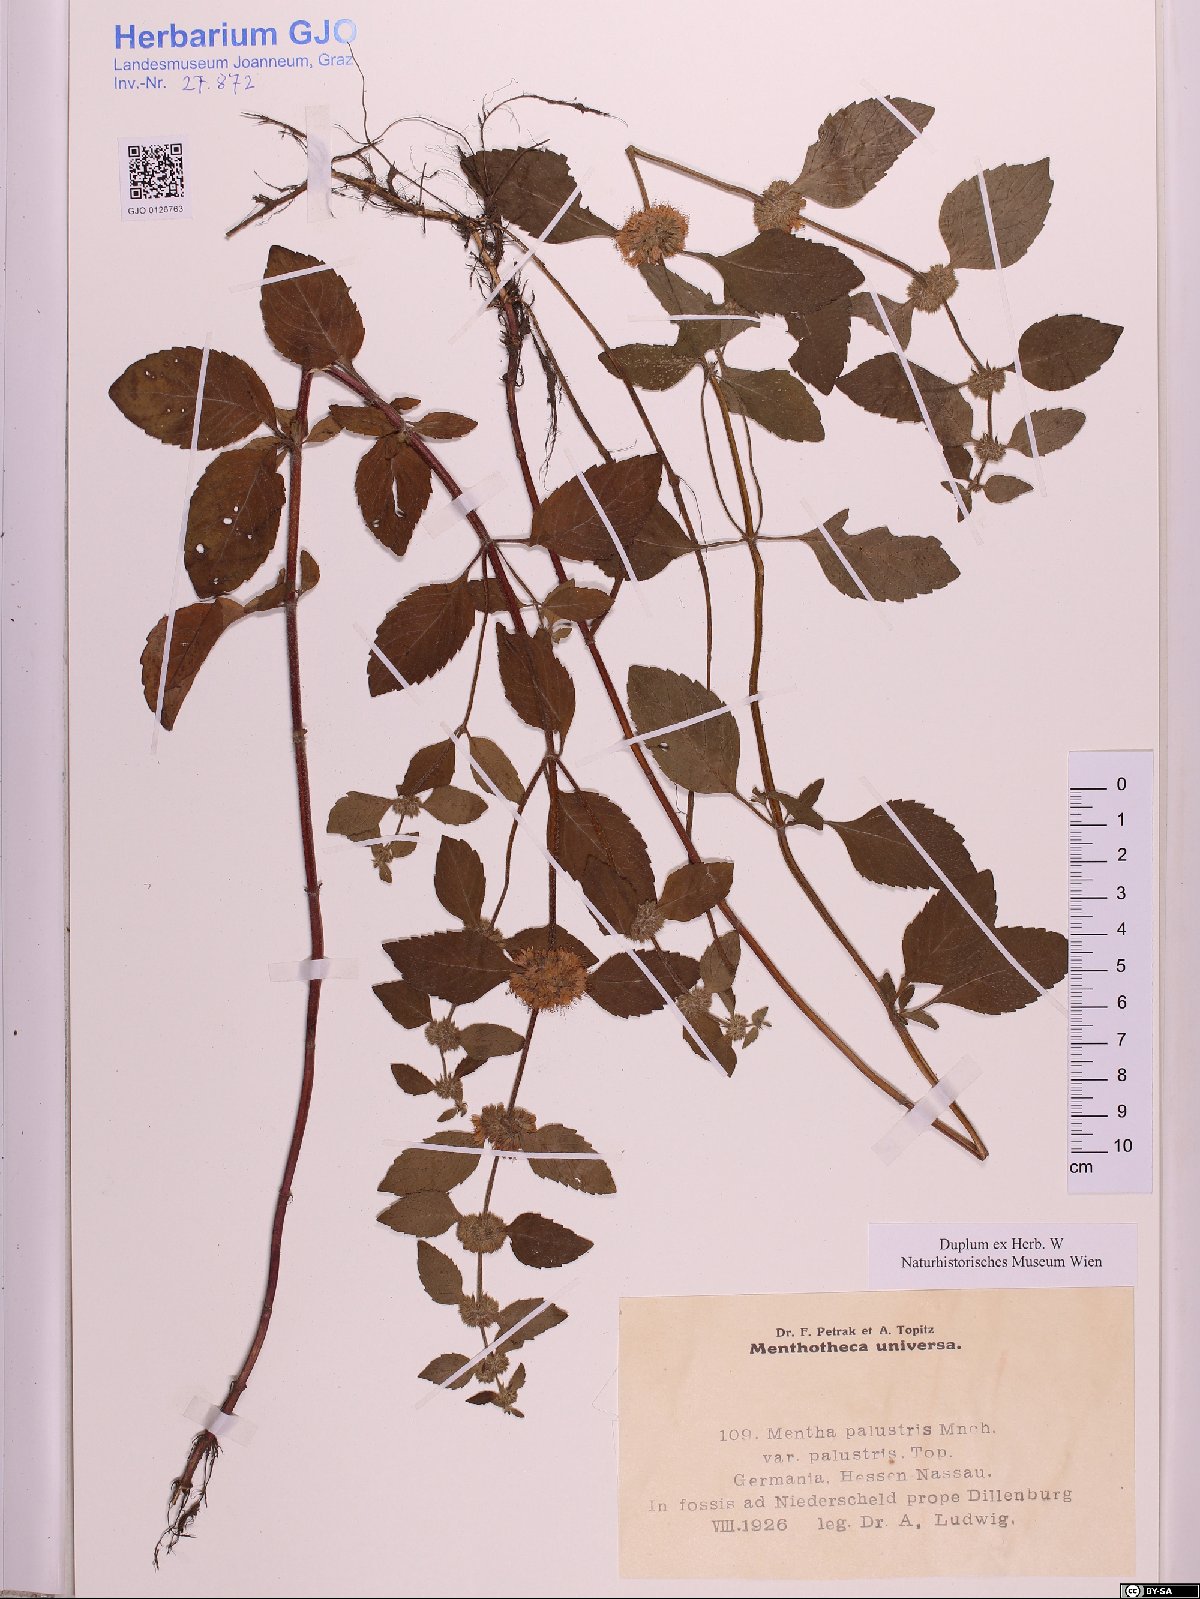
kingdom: Plantae
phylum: Tracheophyta
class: Magnoliopsida
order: Lamiales
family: Lamiaceae
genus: Mentha
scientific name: Mentha arvensis
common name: Corn mint
